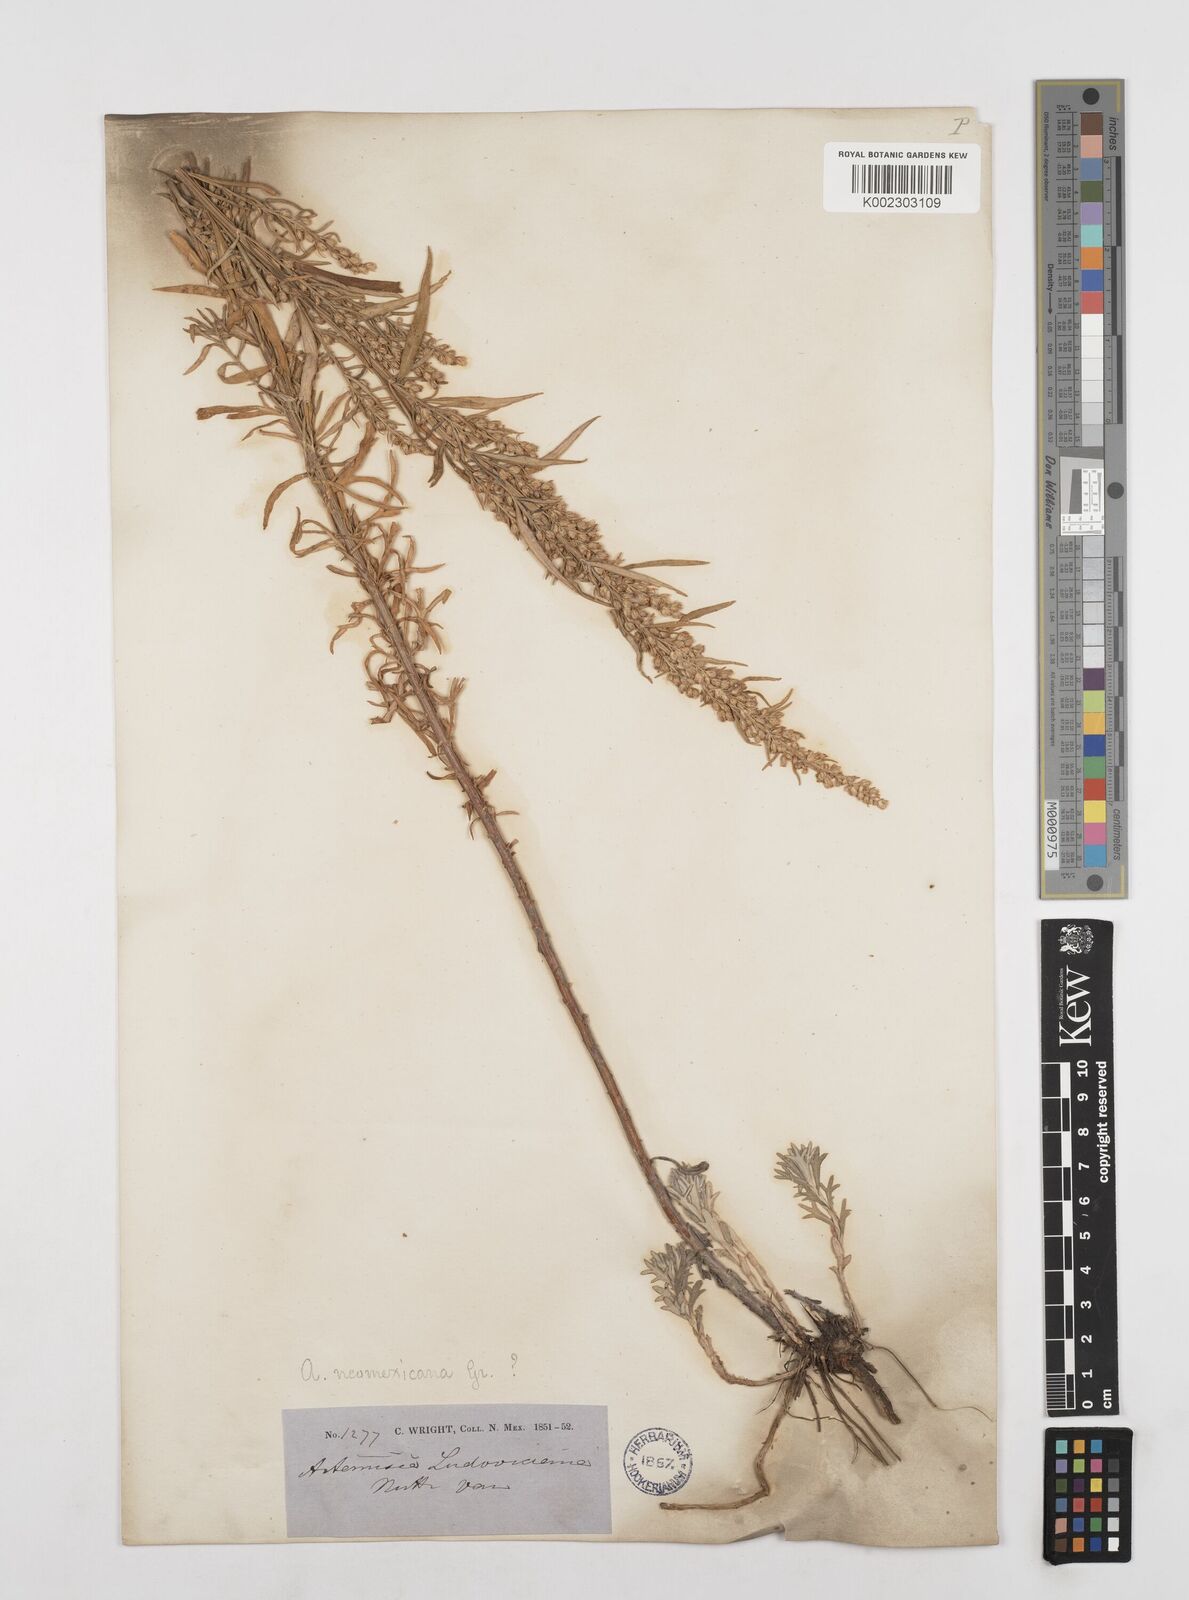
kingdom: Plantae
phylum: Tracheophyta
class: Magnoliopsida
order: Asterales
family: Asteraceae
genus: Artemisia
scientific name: Artemisia neomexicana
